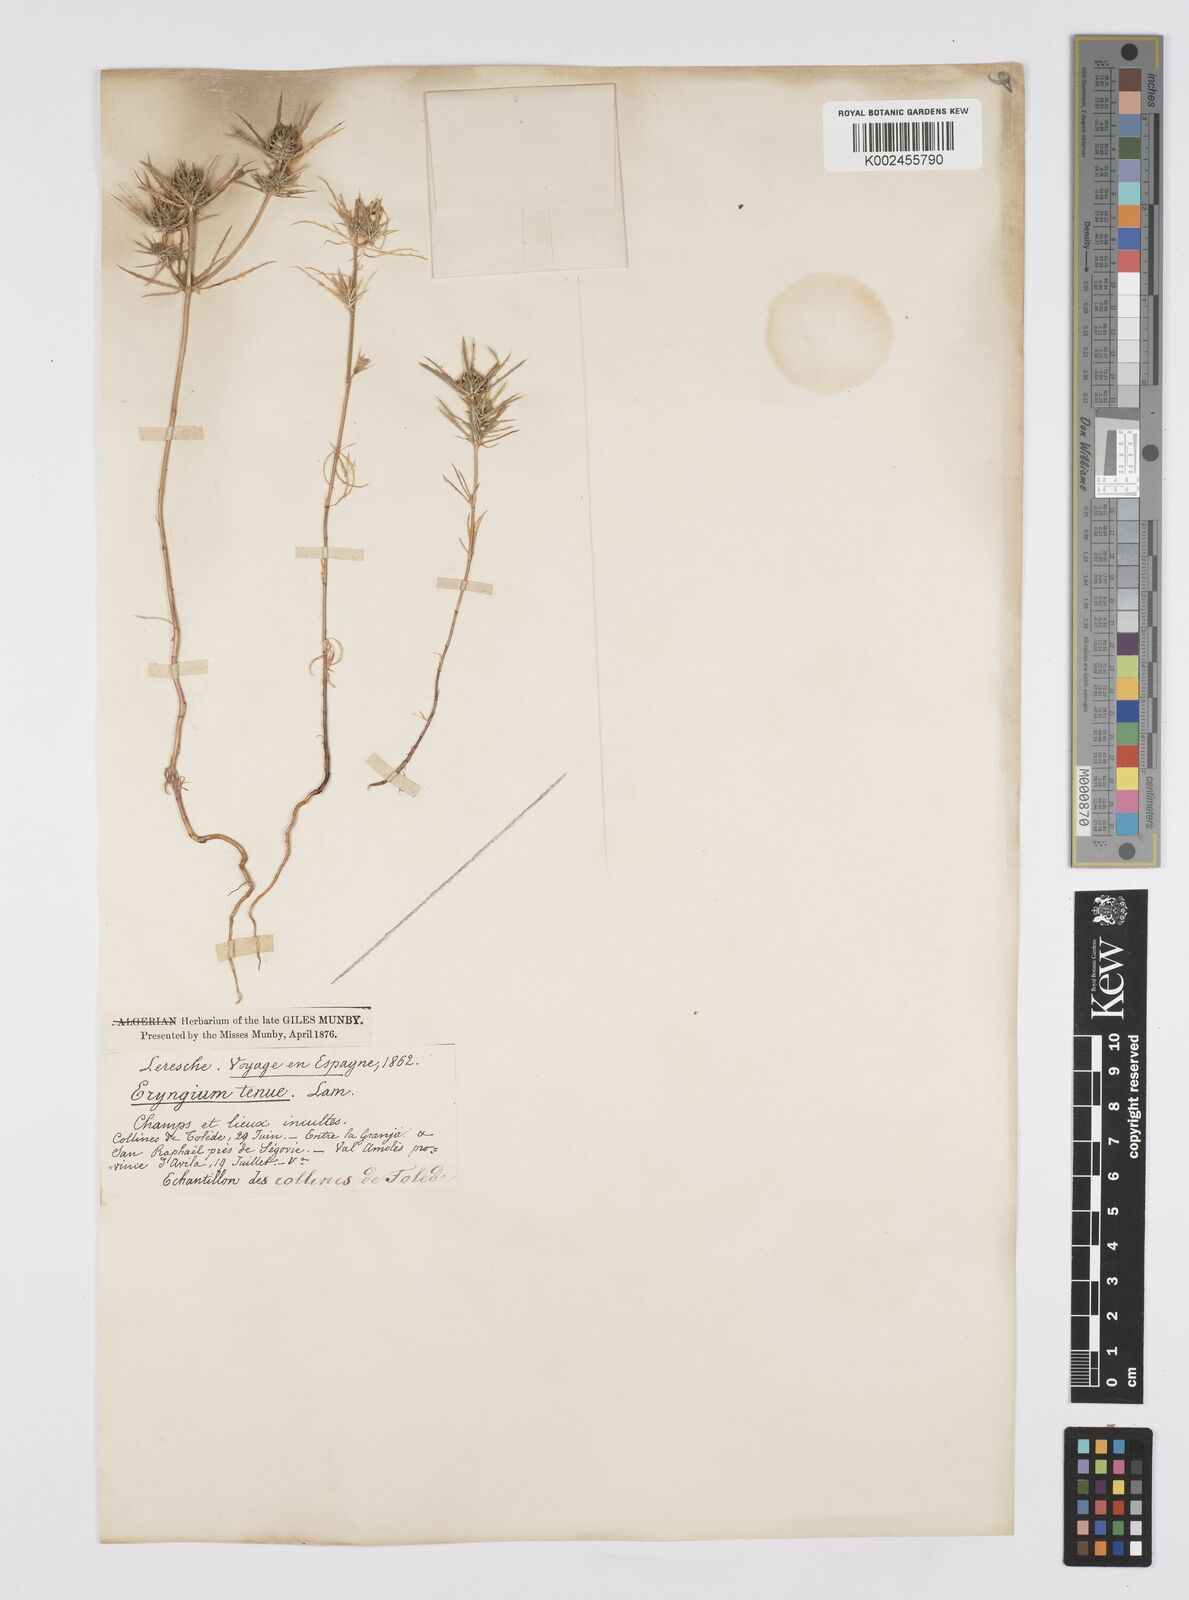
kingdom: Plantae
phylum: Tracheophyta
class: Magnoliopsida
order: Apiales
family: Apiaceae
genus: Eryngium
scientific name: Eryngium
